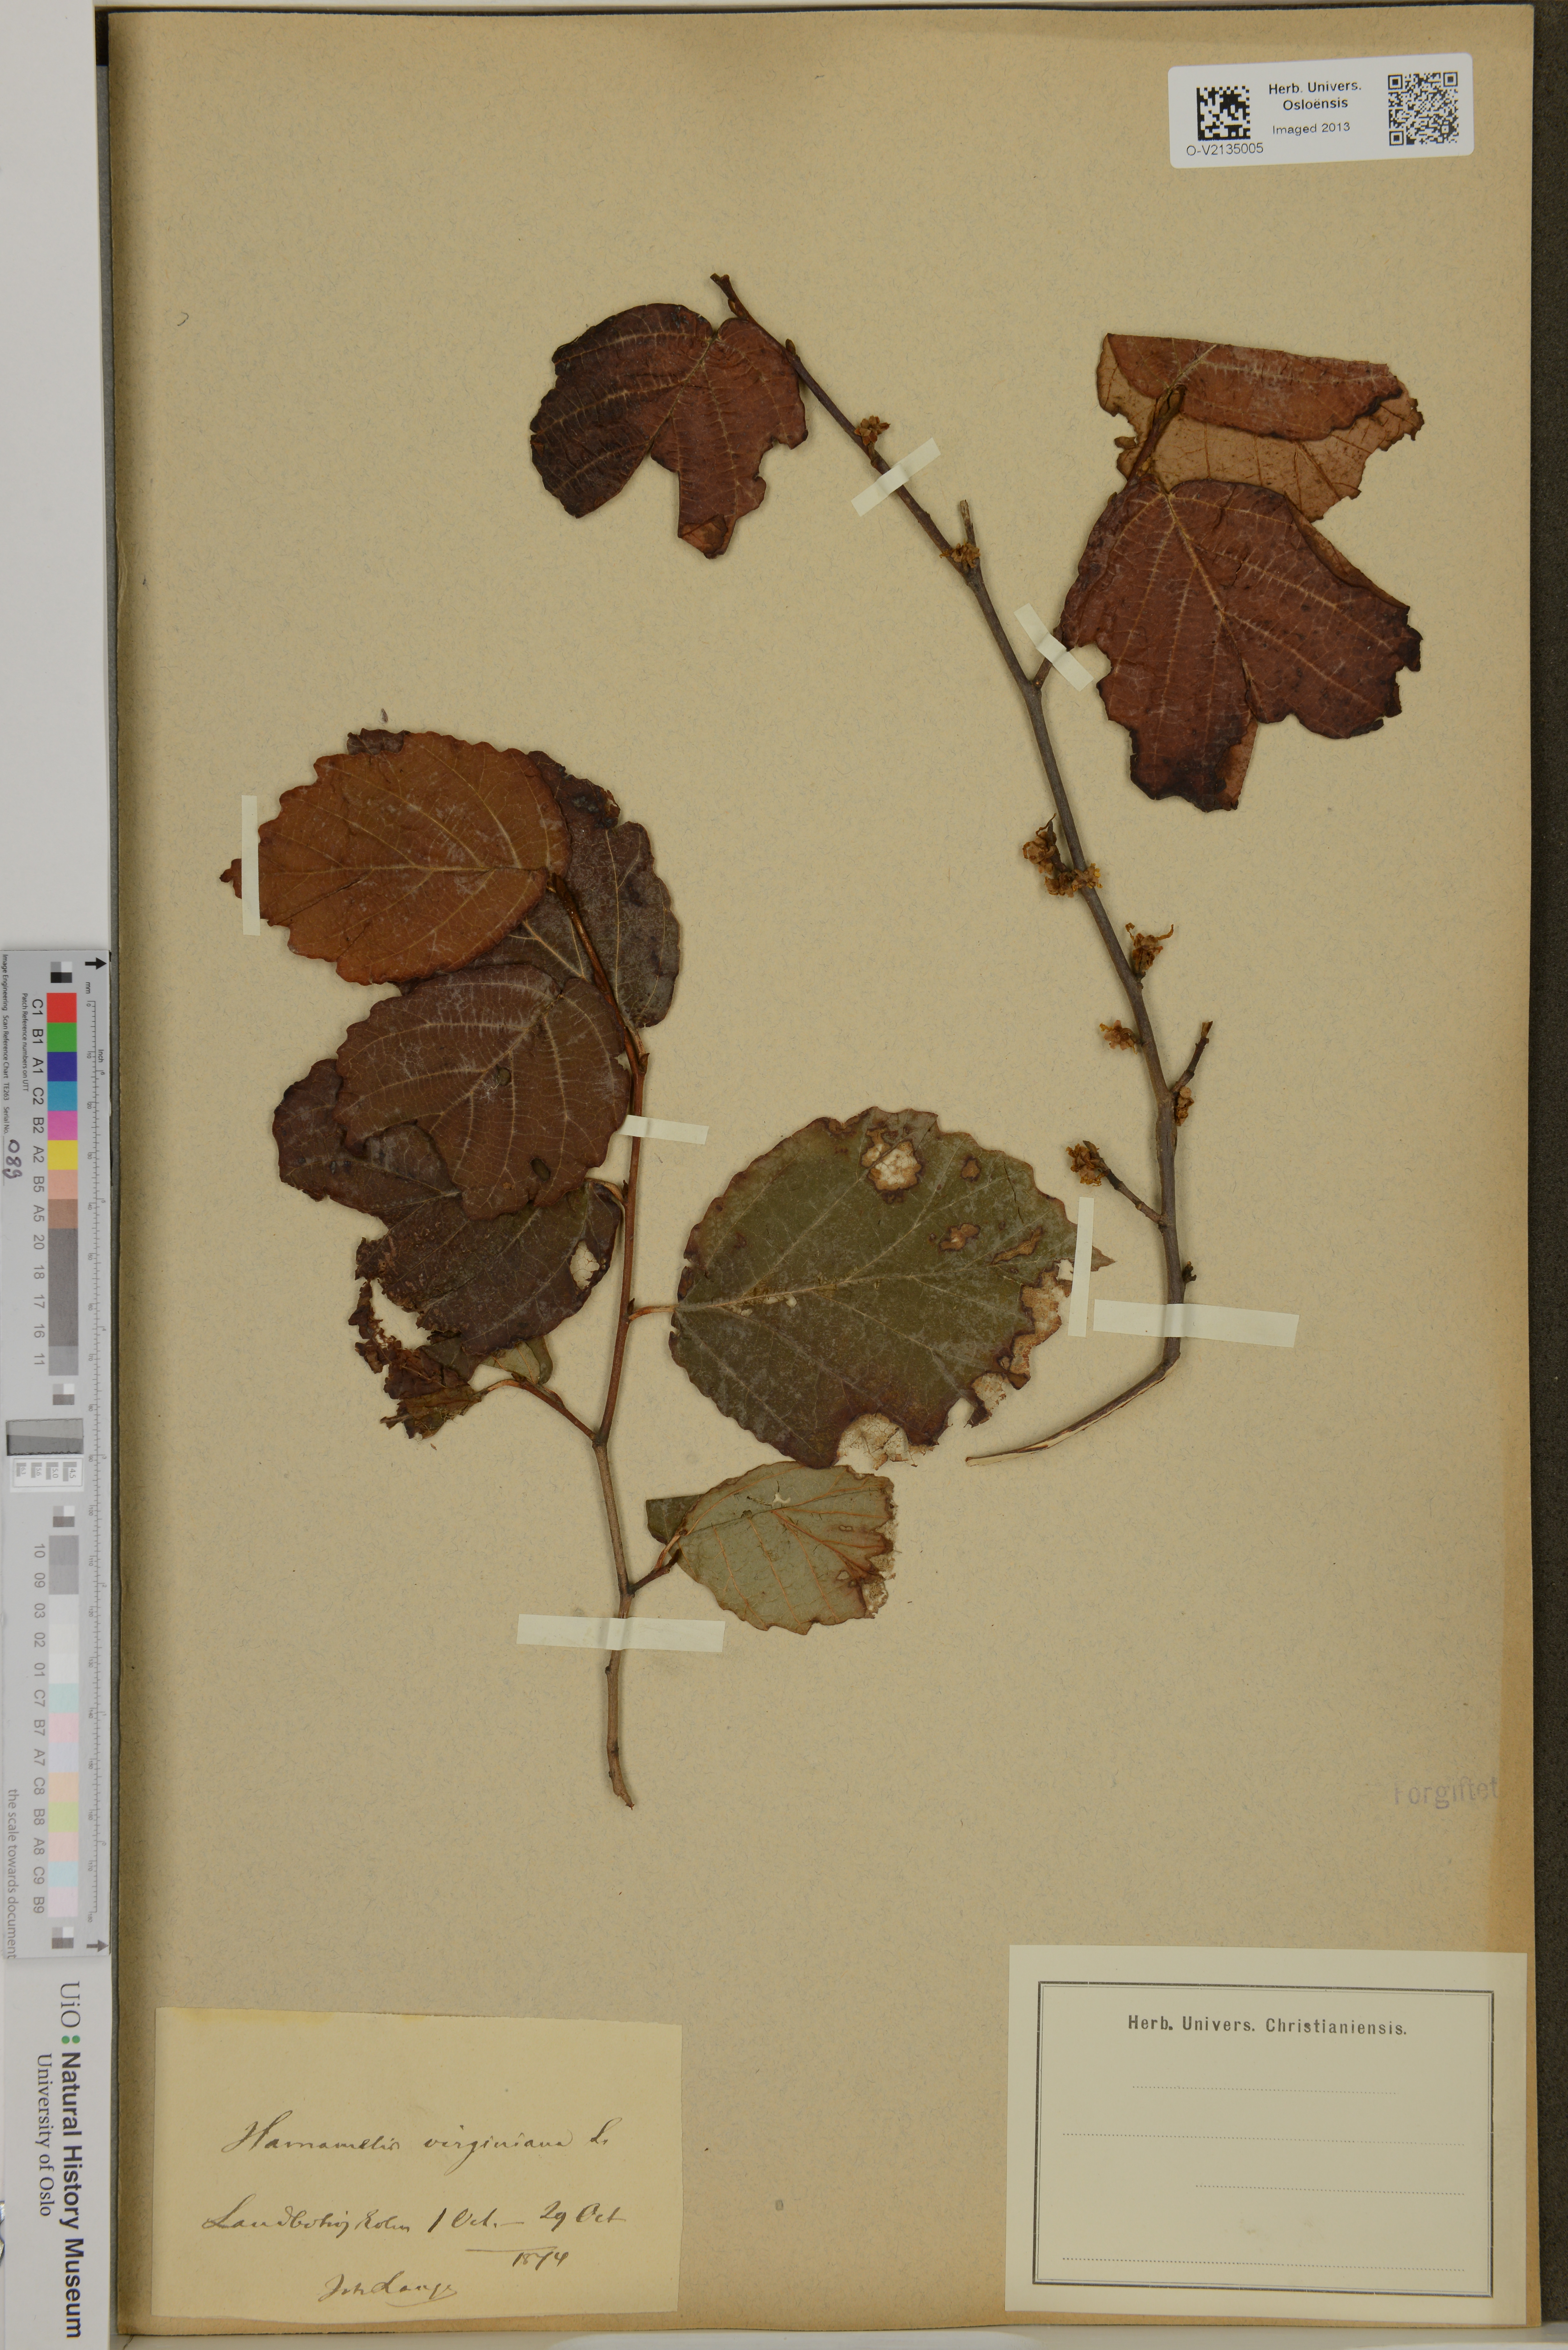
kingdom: Plantae
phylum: Tracheophyta
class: Magnoliopsida
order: Saxifragales
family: Hamamelidaceae
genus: Hamamelis
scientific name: Hamamelis virginiana
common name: Witch-hazel
